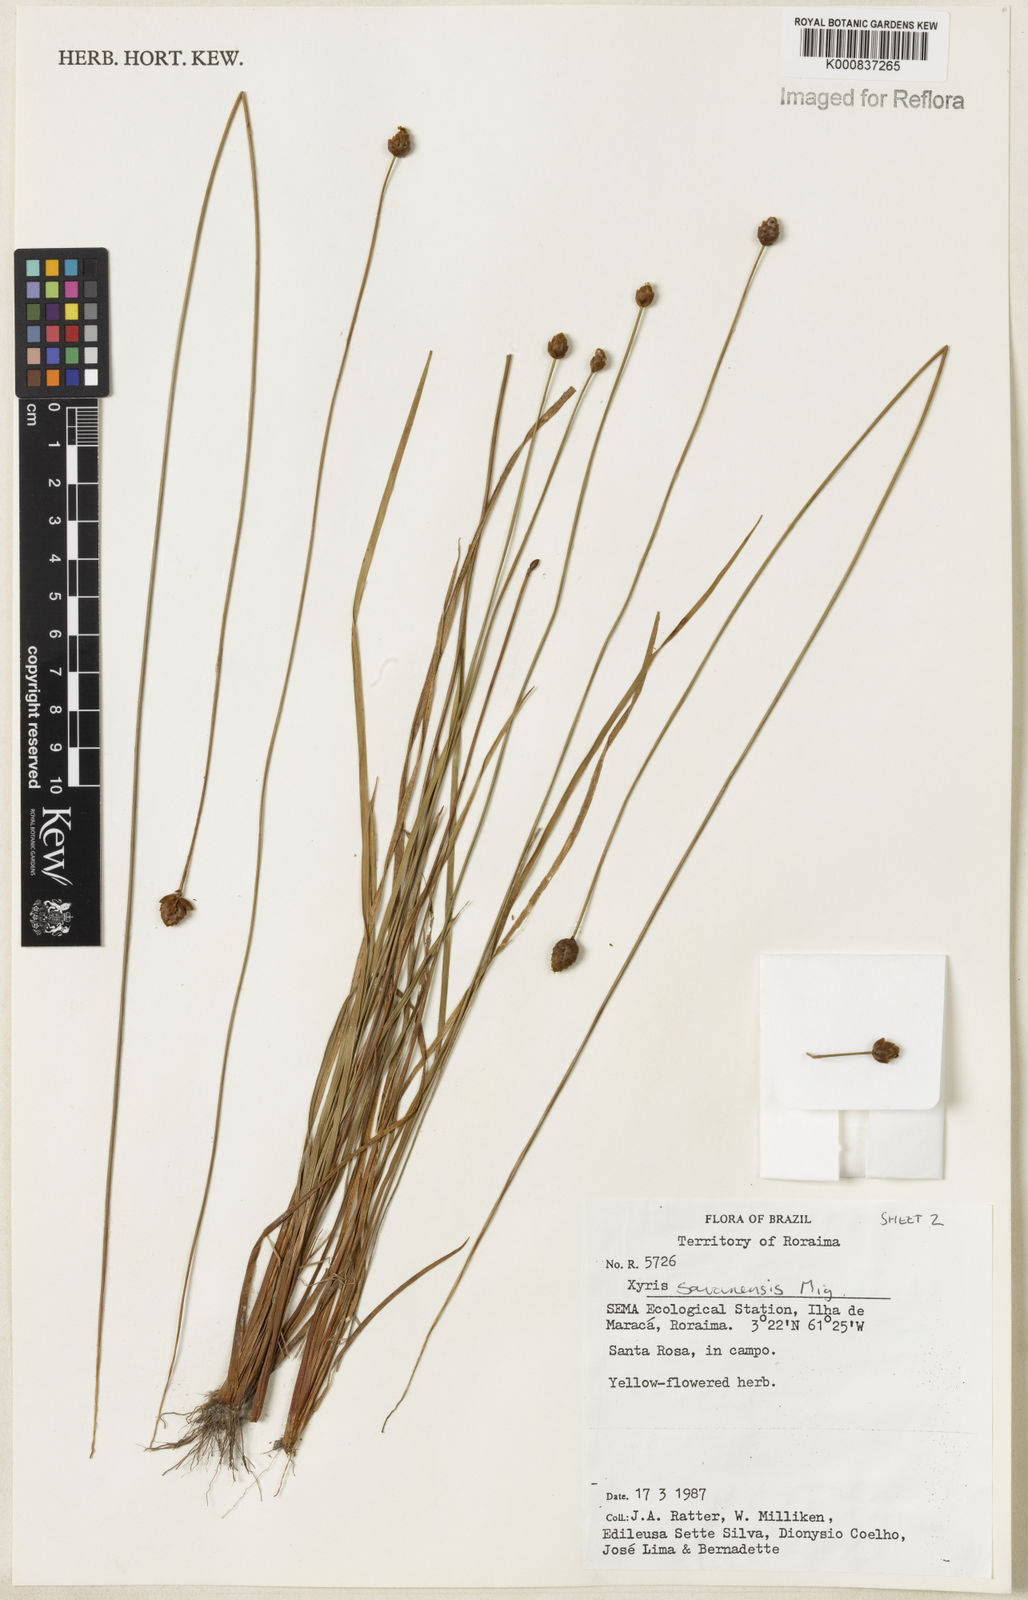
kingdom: Plantae
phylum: Tracheophyta
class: Liliopsida
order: Poales
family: Xyridaceae
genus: Xyris
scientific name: Xyris savanensis
